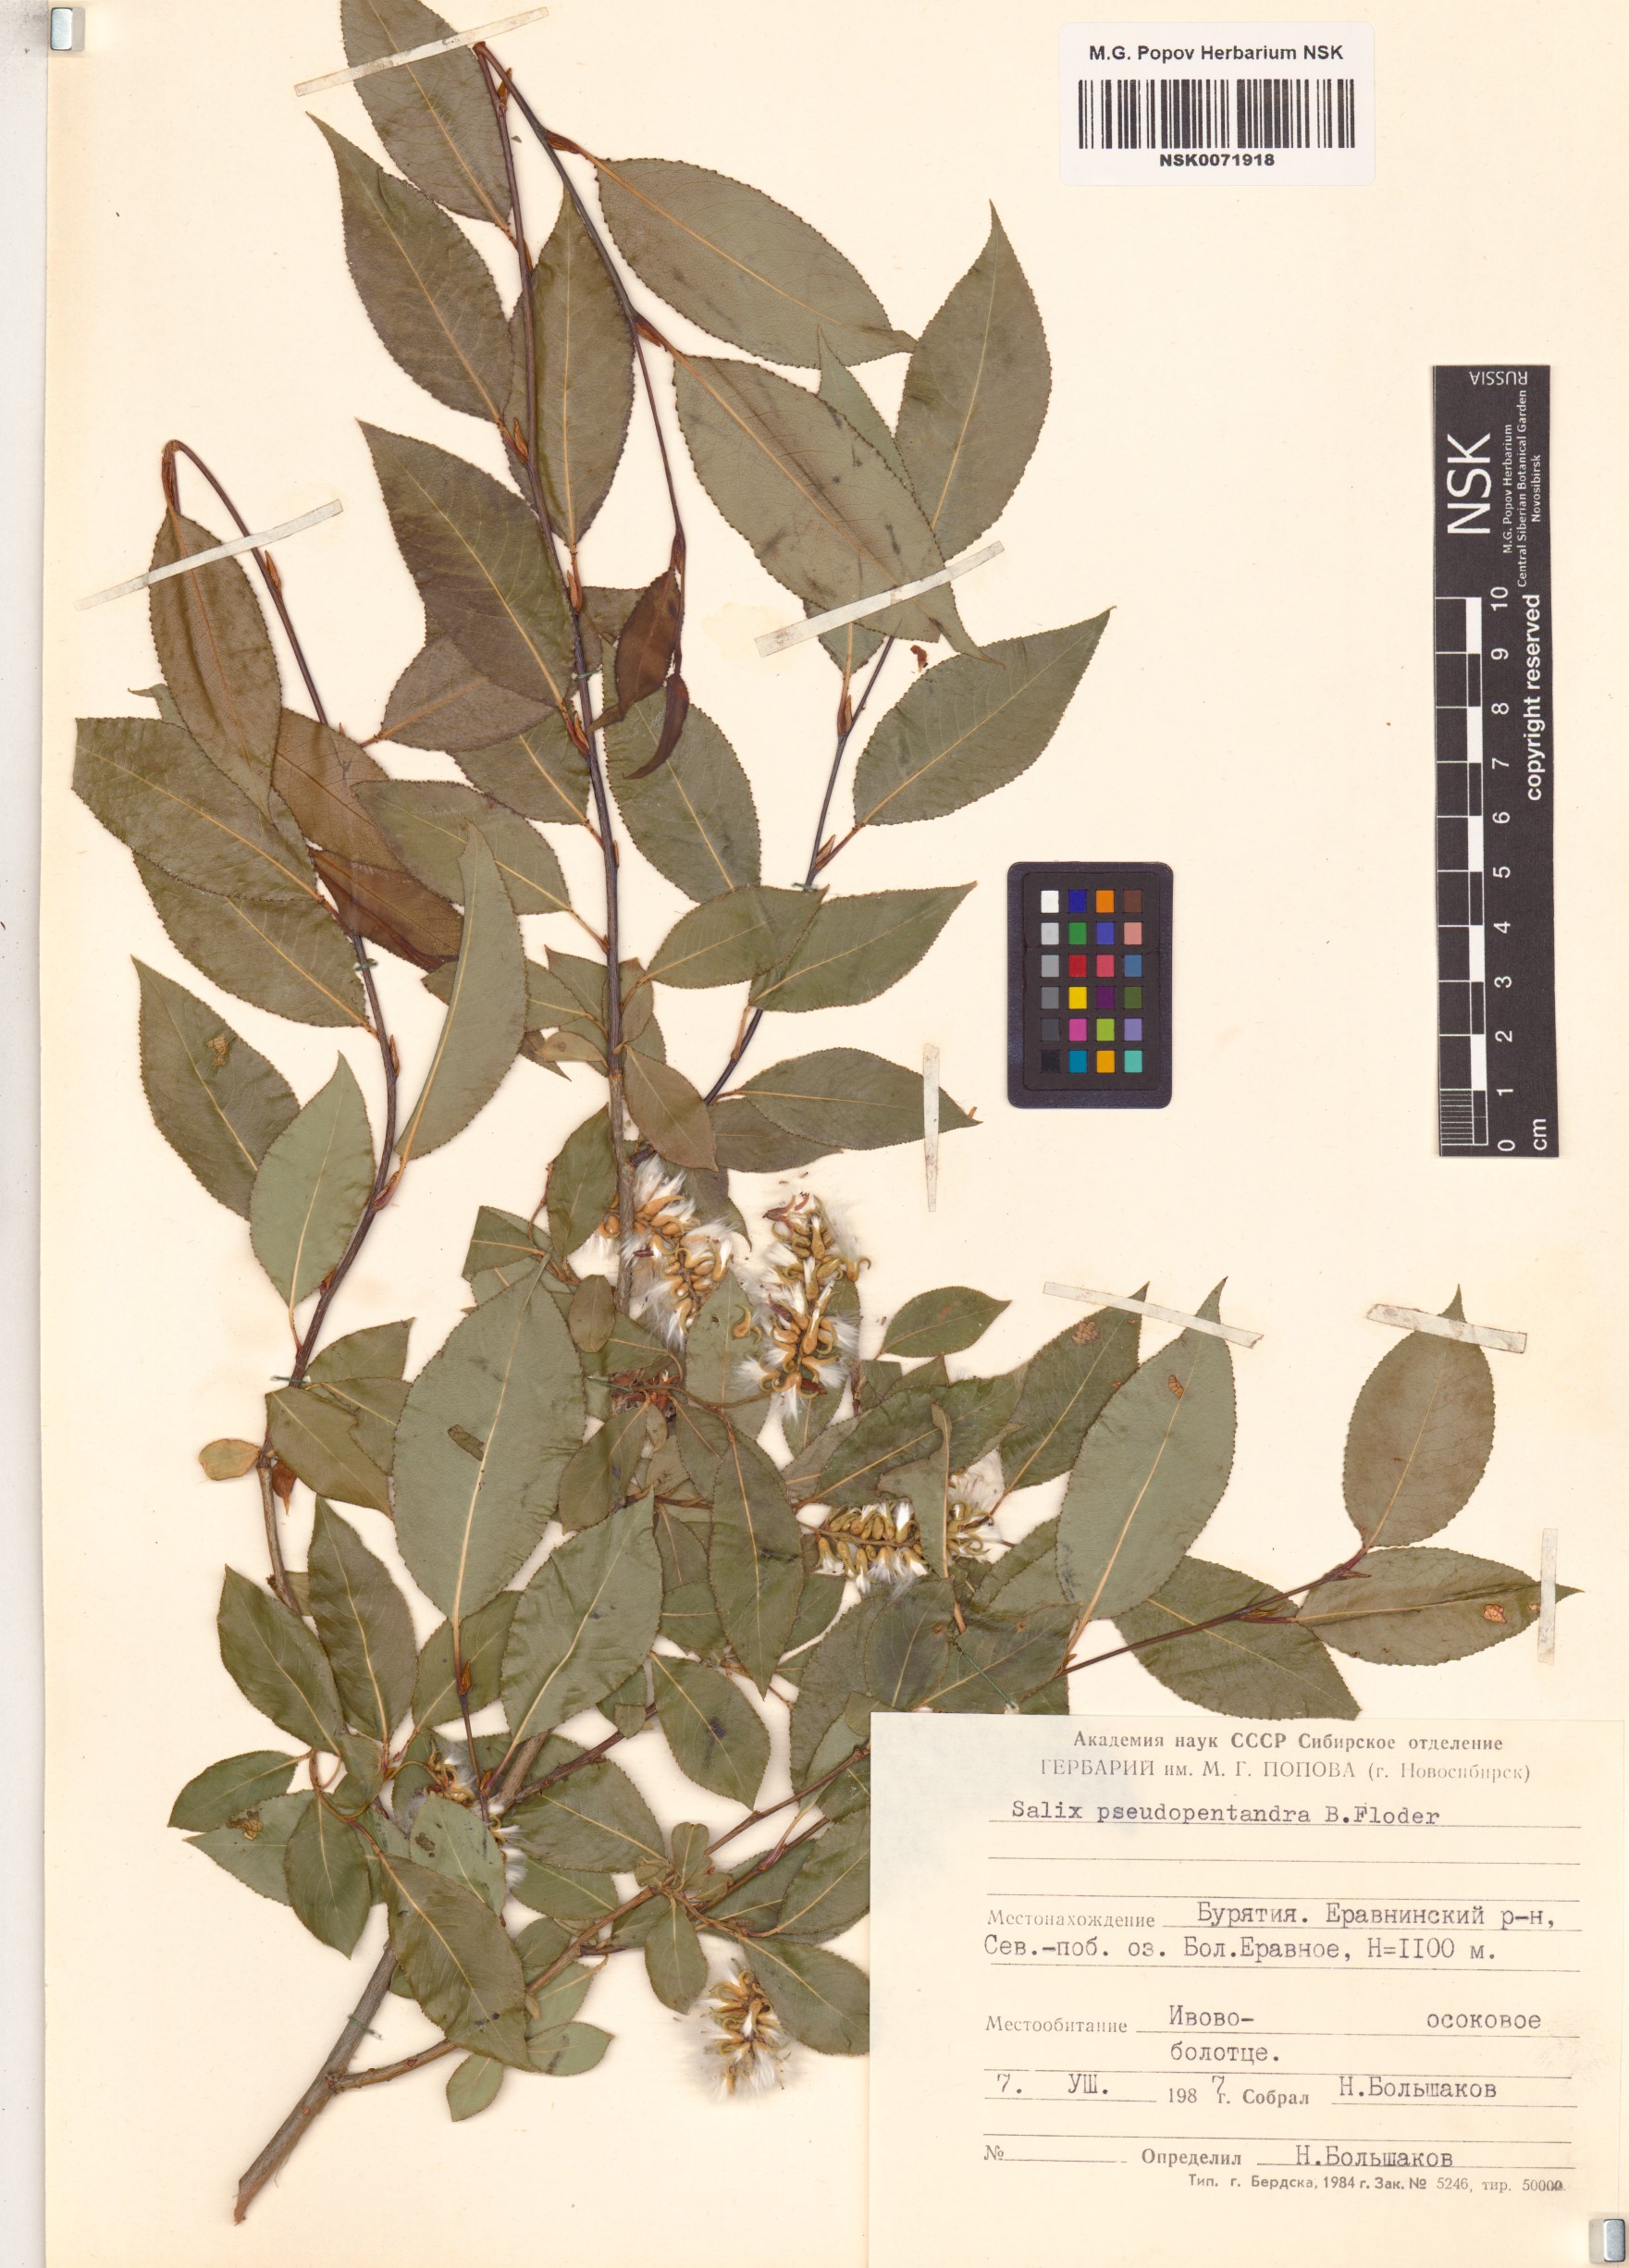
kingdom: Plantae
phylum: Tracheophyta
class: Magnoliopsida
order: Malpighiales
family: Salicaceae
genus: Salix
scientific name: Salix pseudopentandra
